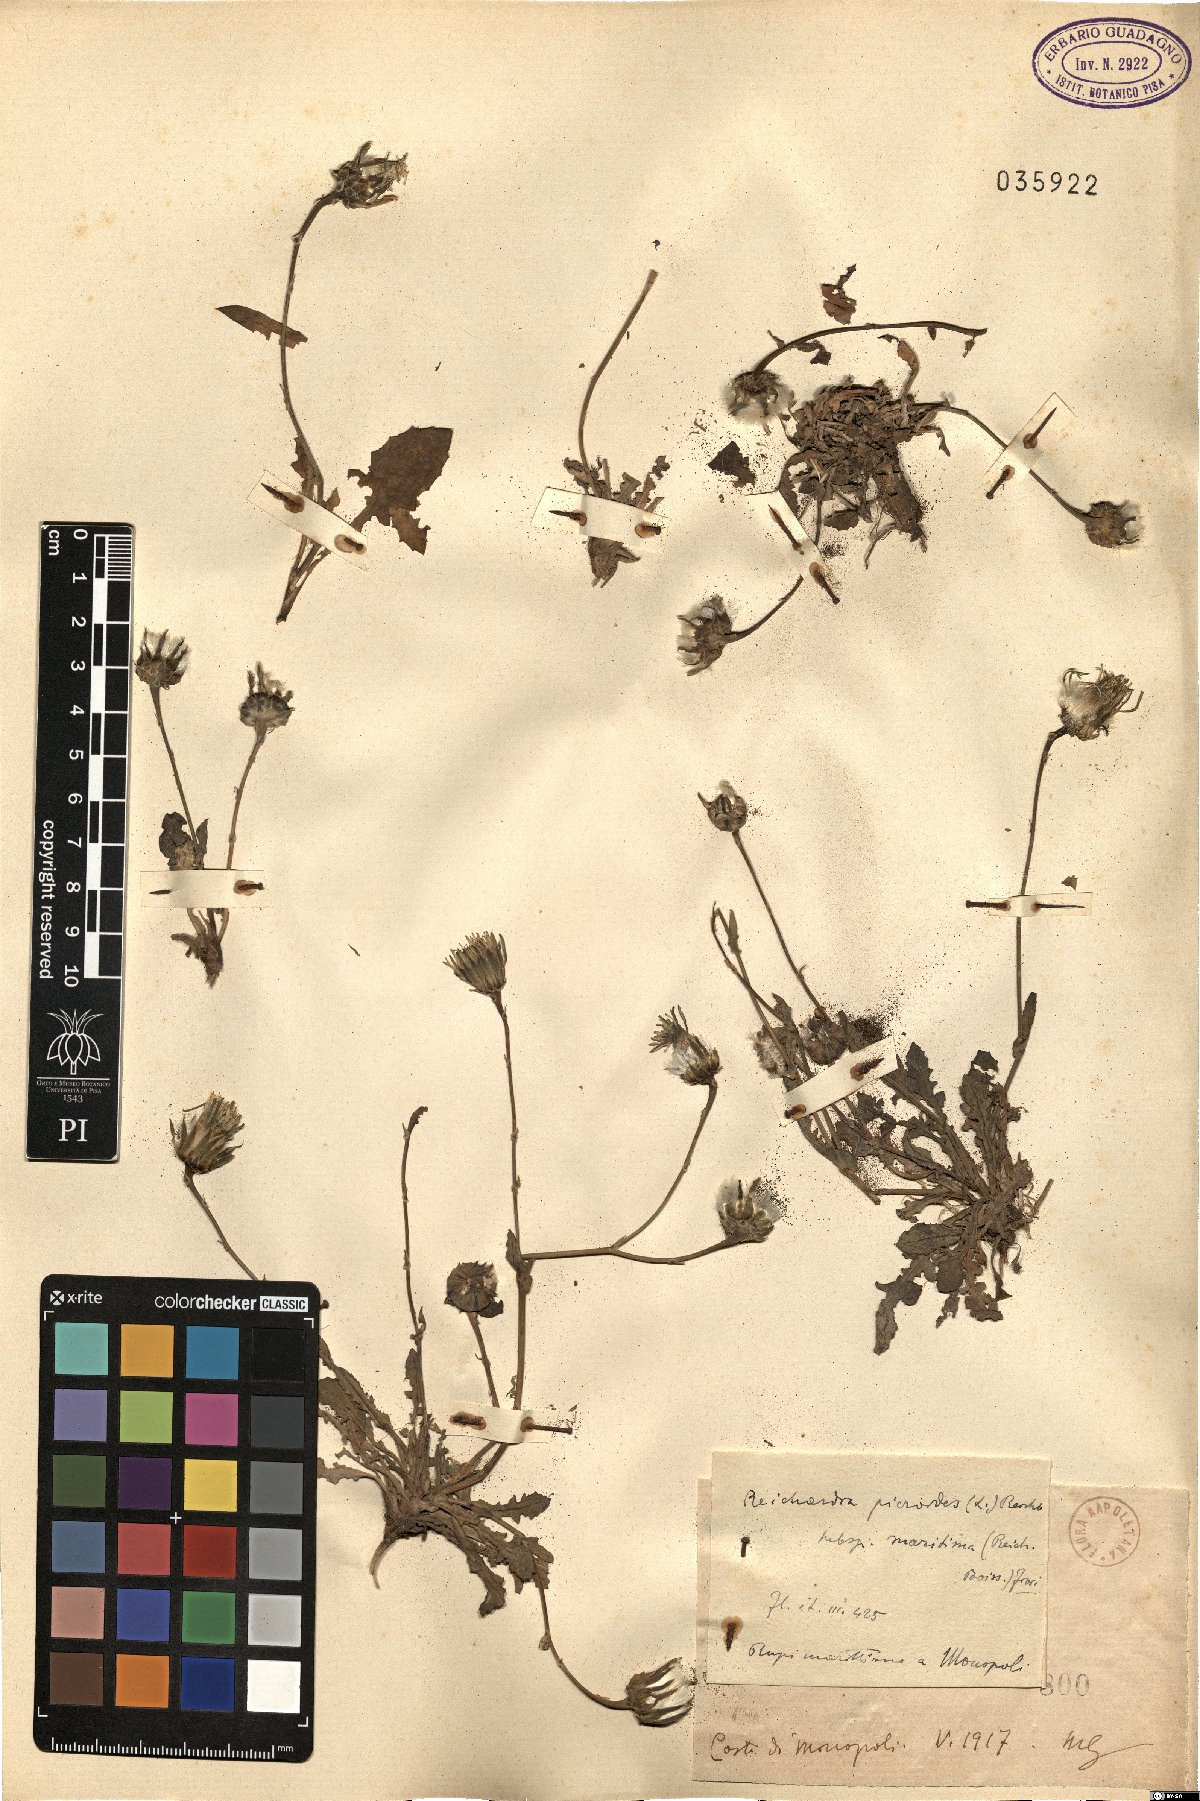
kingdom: Plantae
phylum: Tracheophyta
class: Magnoliopsida
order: Asterales
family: Asteraceae
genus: Reichardia
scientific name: Reichardia picroides
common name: Common brighteyes
